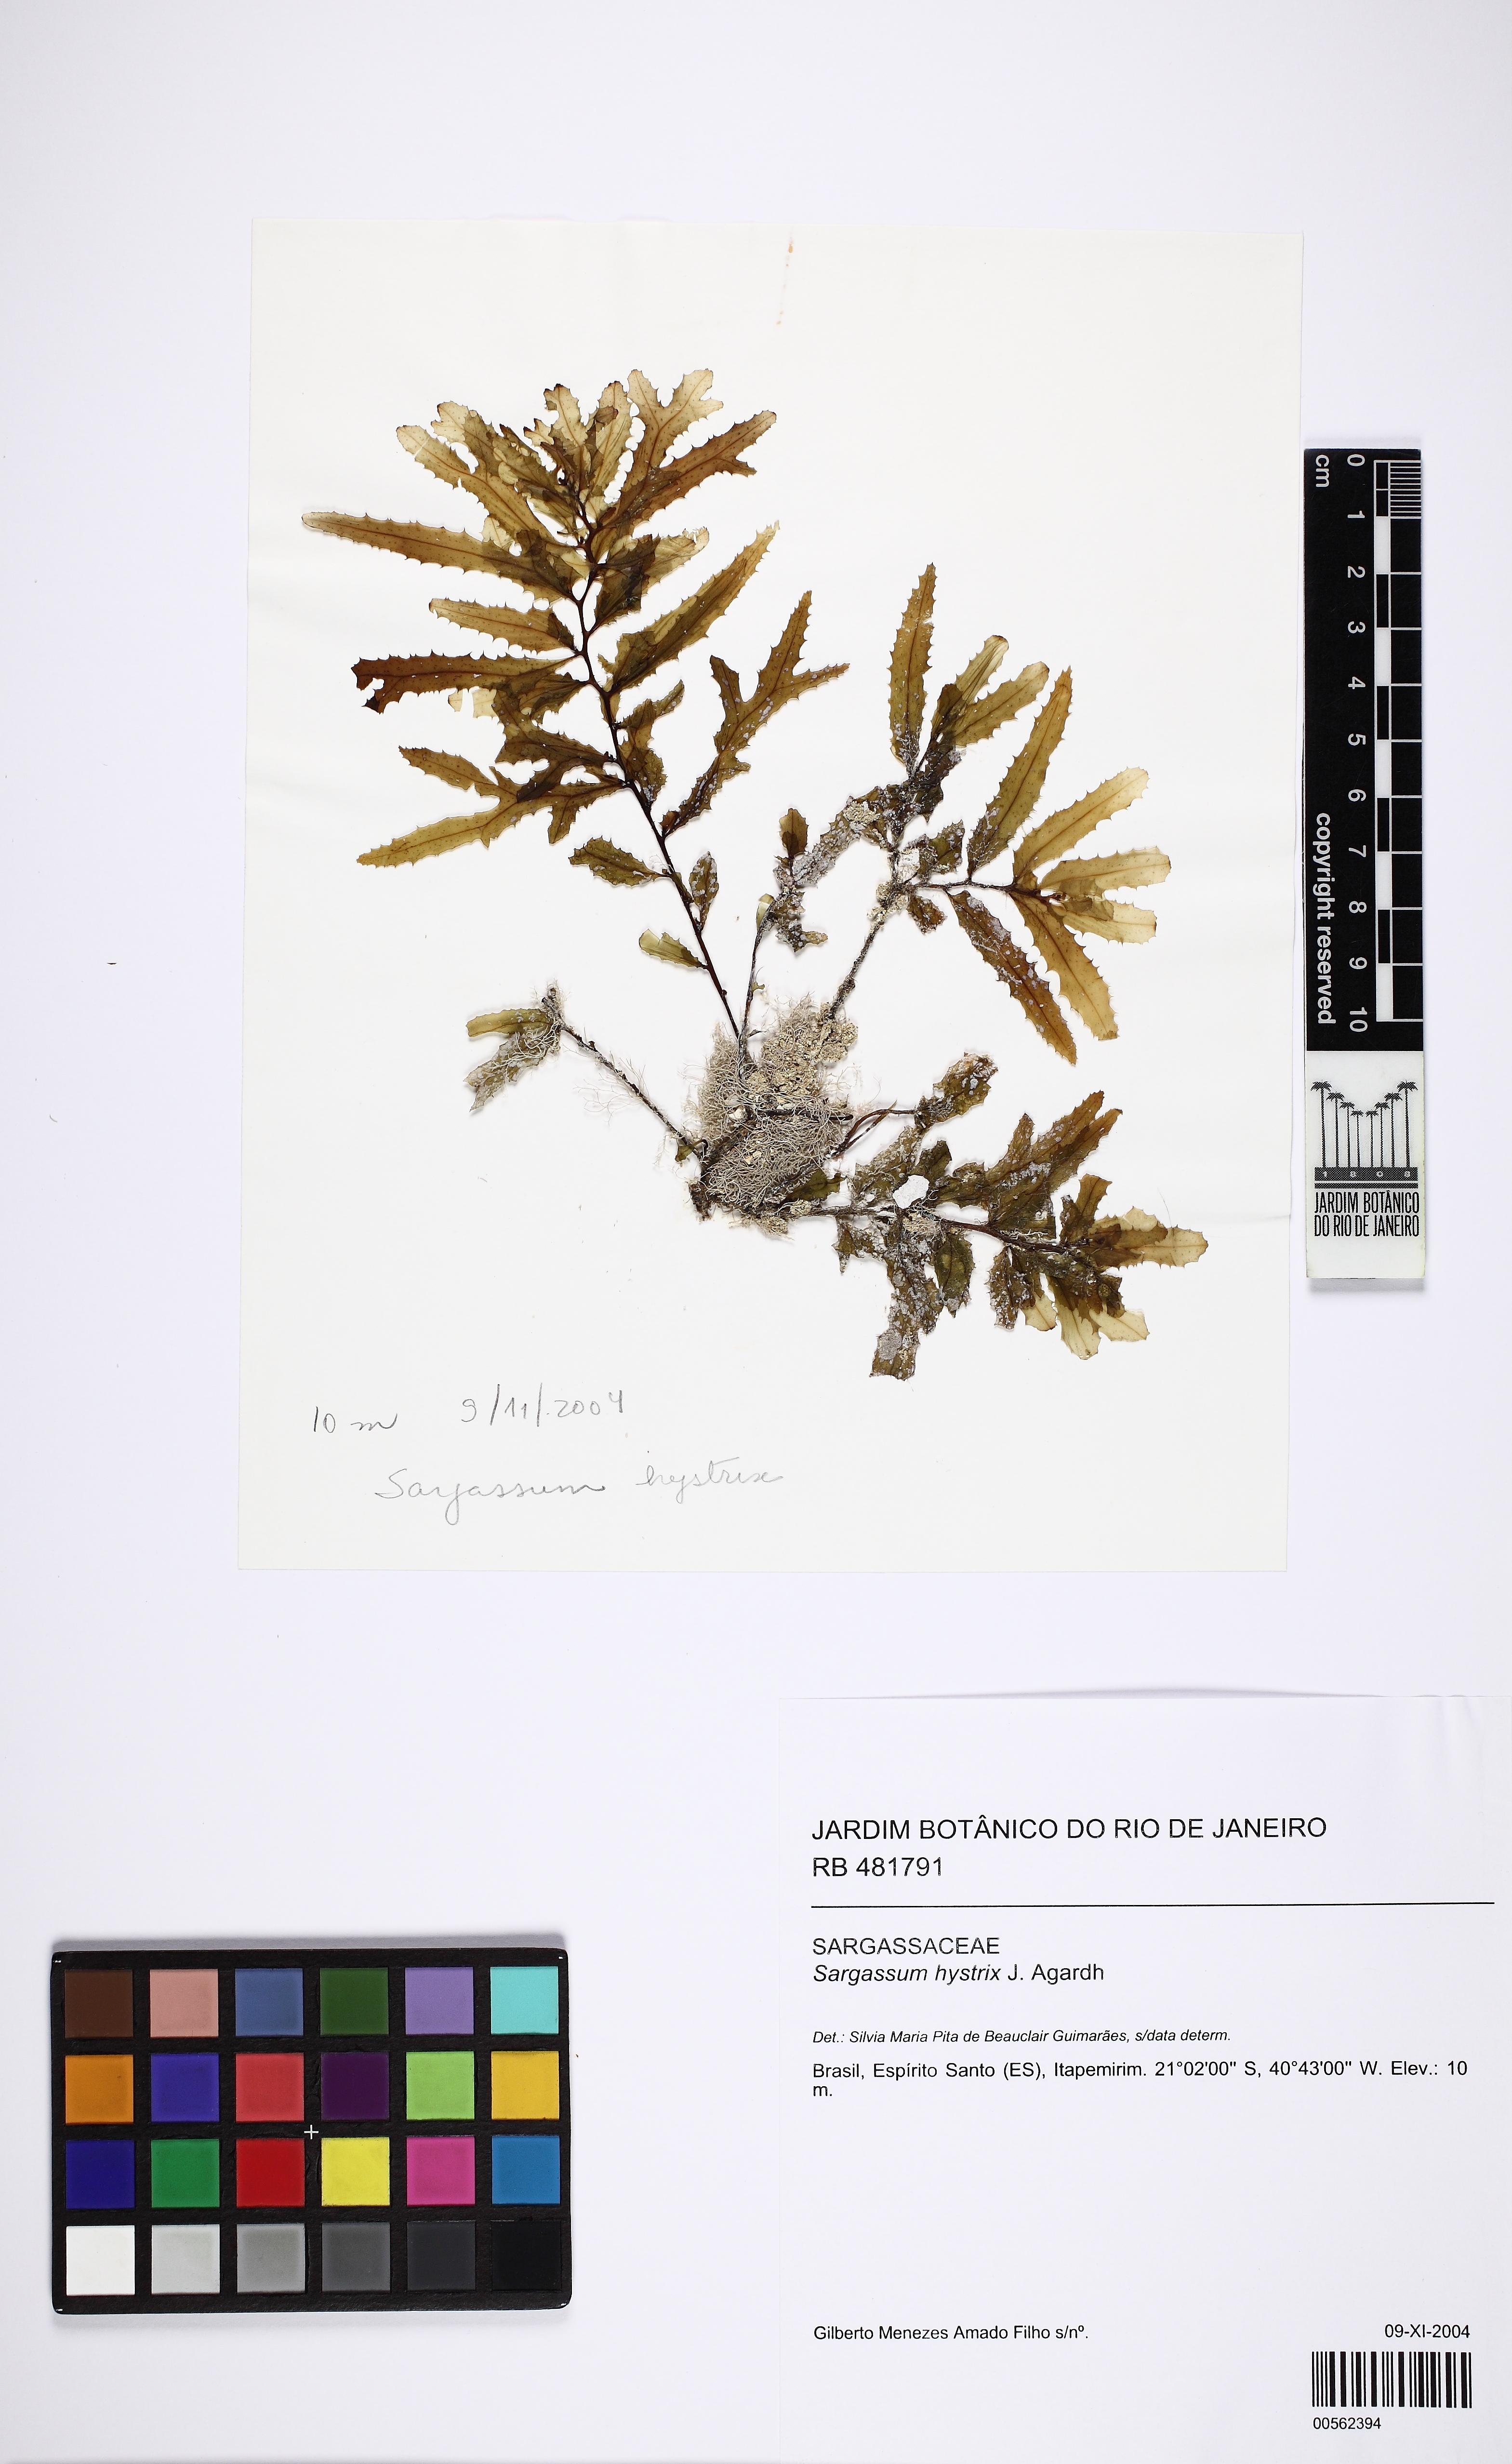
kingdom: Chromista
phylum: Ochrophyta
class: Phaeophyceae
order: Fucales
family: Sargassaceae
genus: Sargassum
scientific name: Sargassum hystrix
